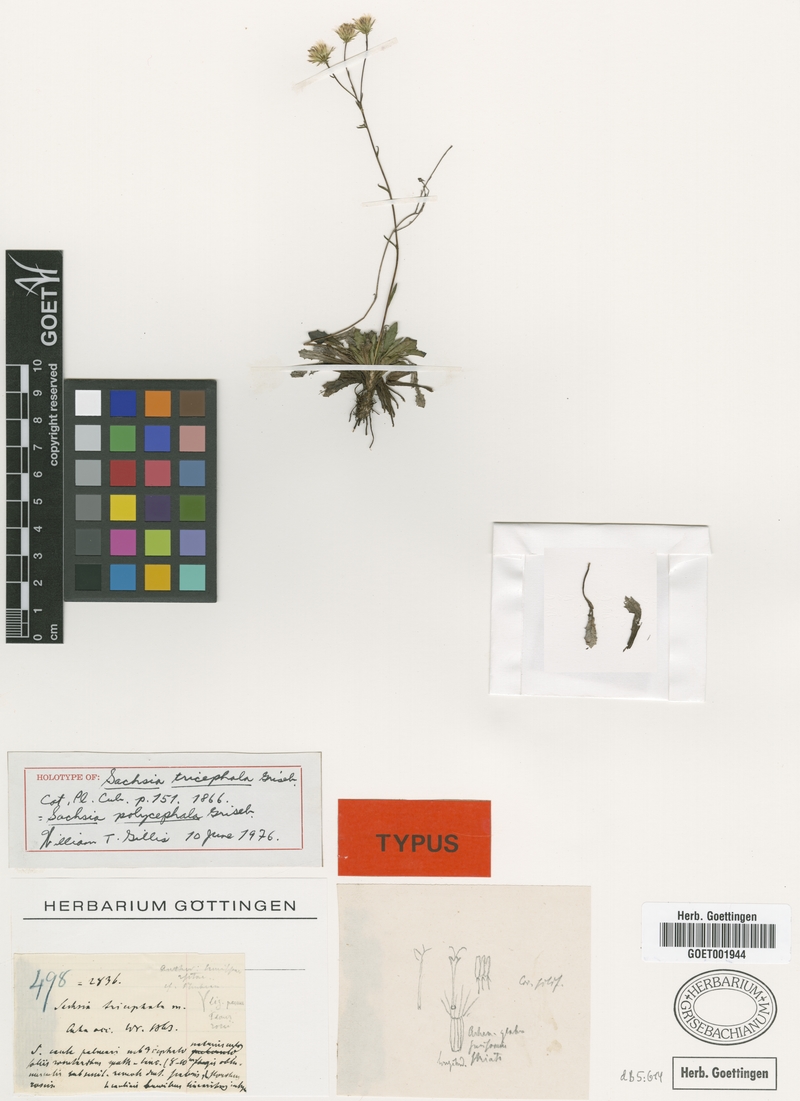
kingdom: Plantae
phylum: Tracheophyta
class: Magnoliopsida
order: Asterales
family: Asteraceae
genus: Sachsia
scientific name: Sachsia polycephala
